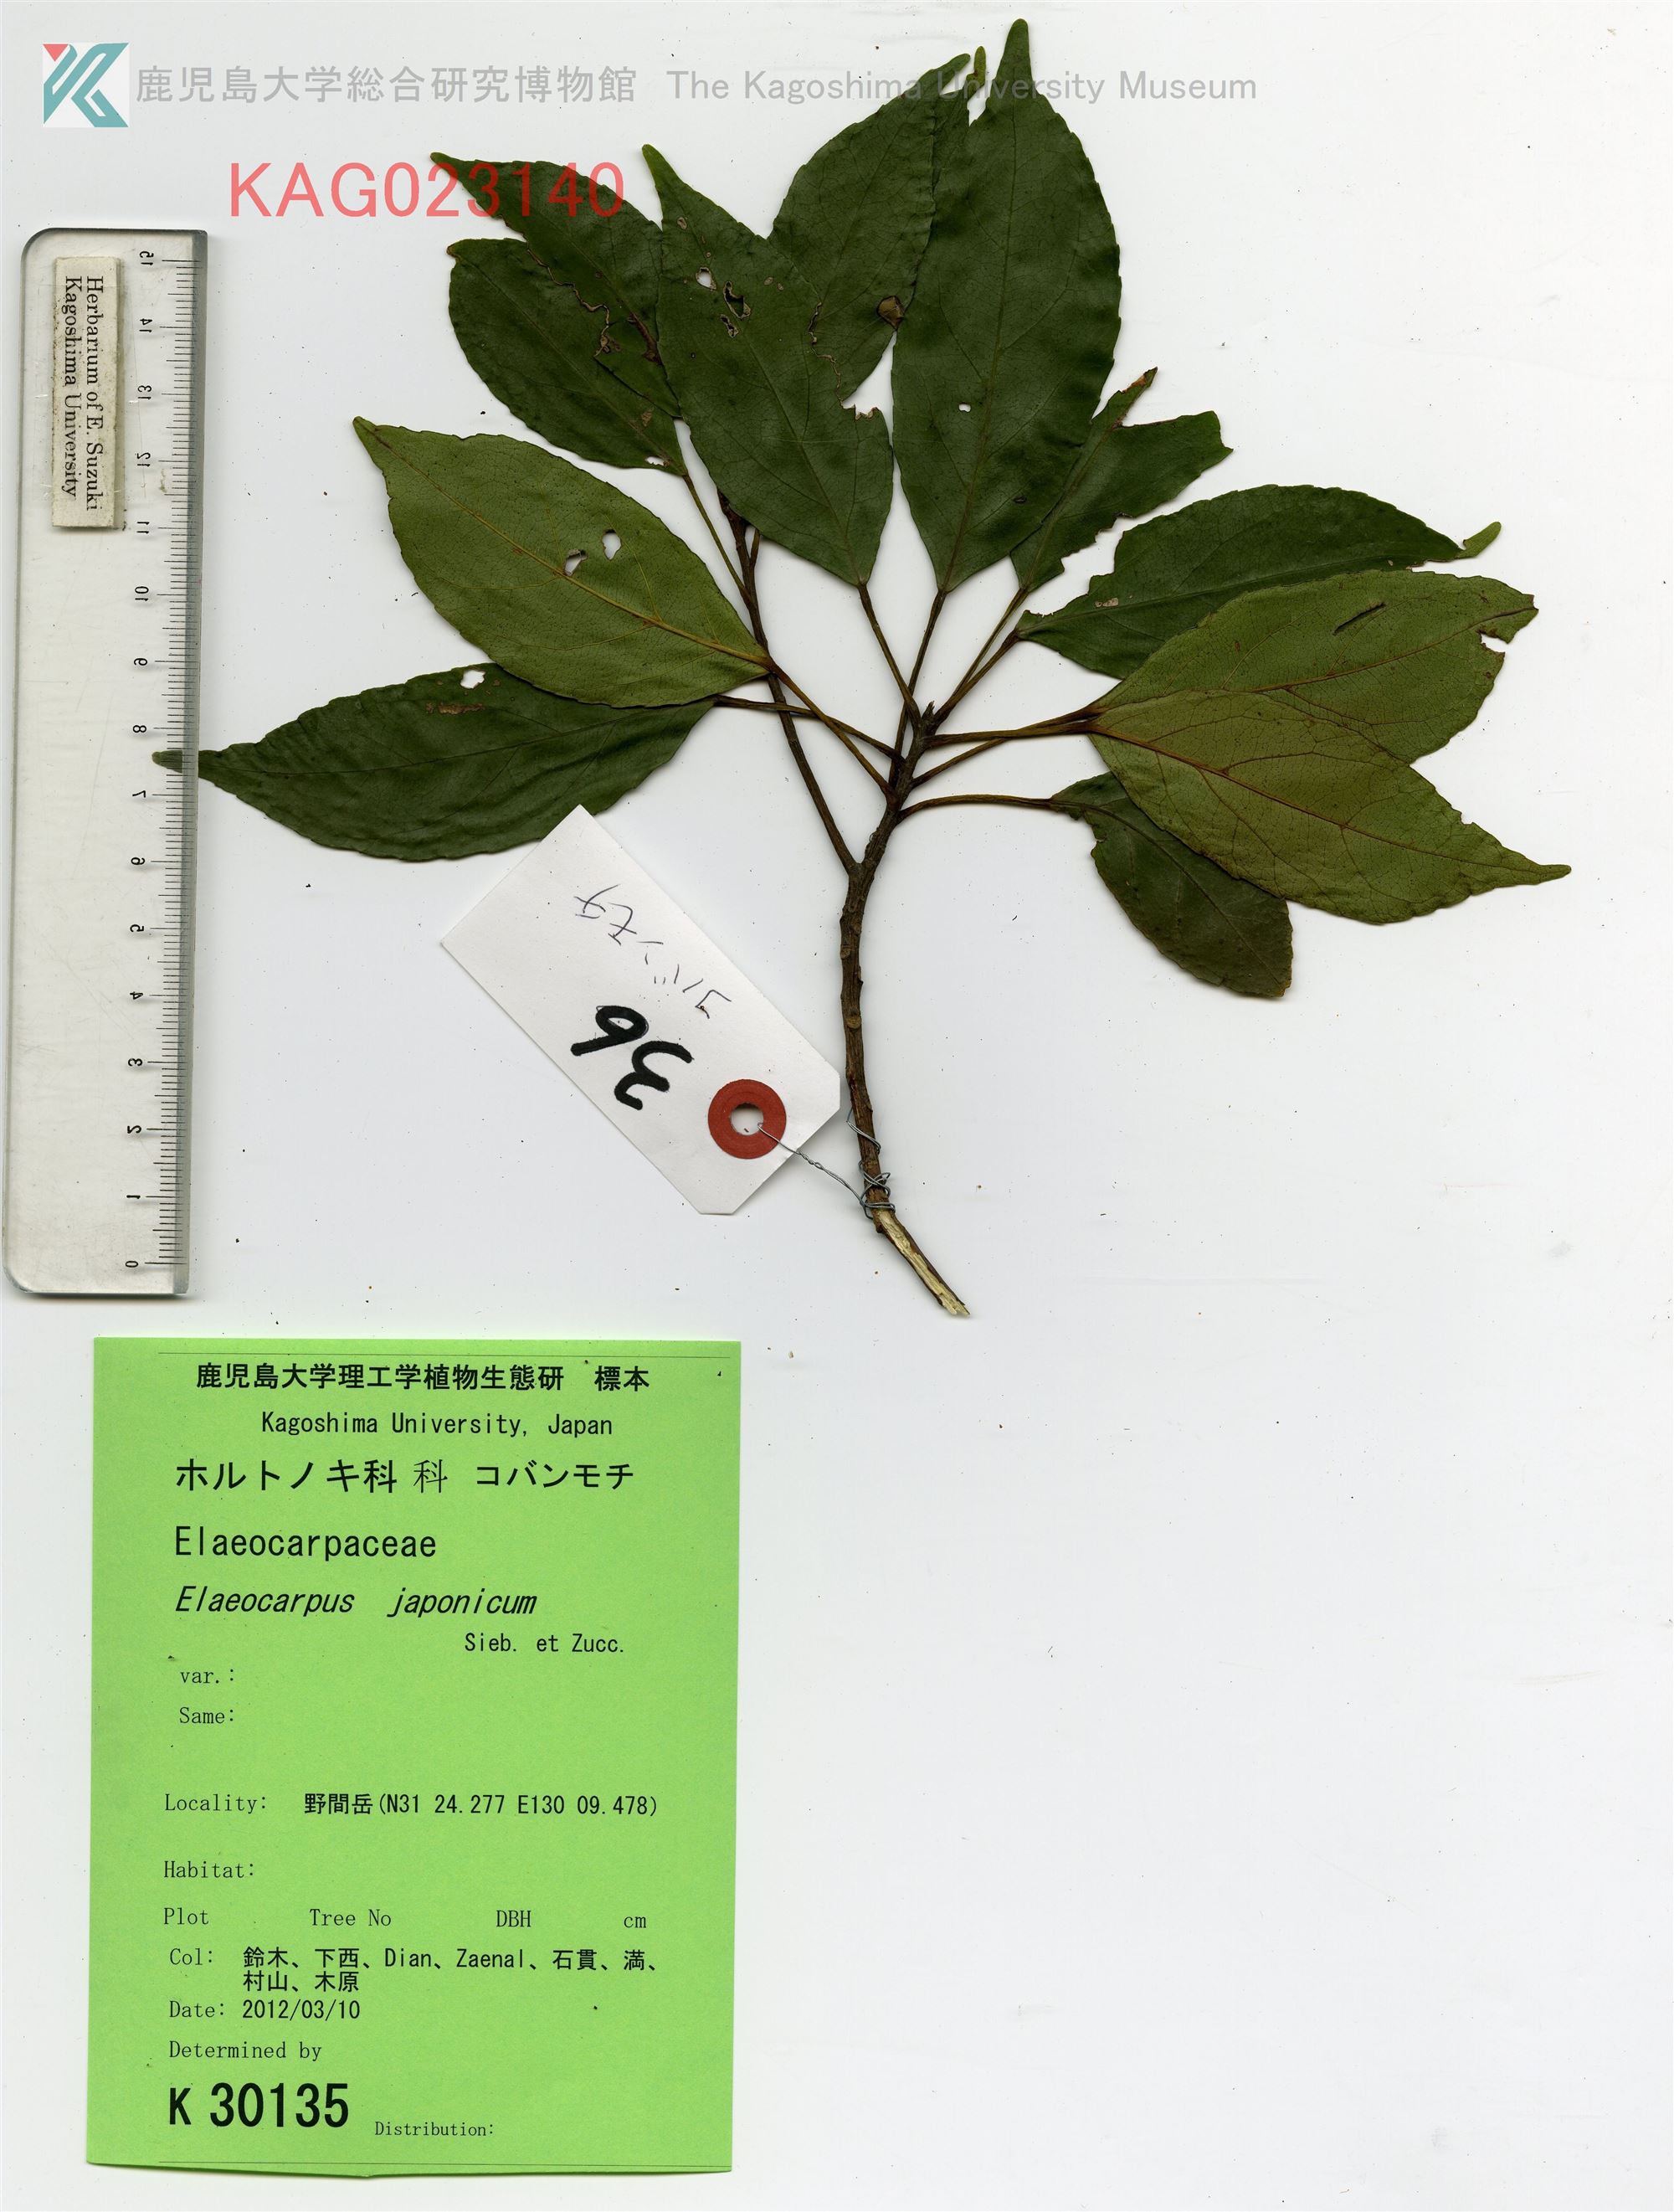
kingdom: Plantae
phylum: Tracheophyta
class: Magnoliopsida
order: Oxalidales
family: Elaeocarpaceae
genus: Elaeocarpus
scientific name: Elaeocarpus japonicus
